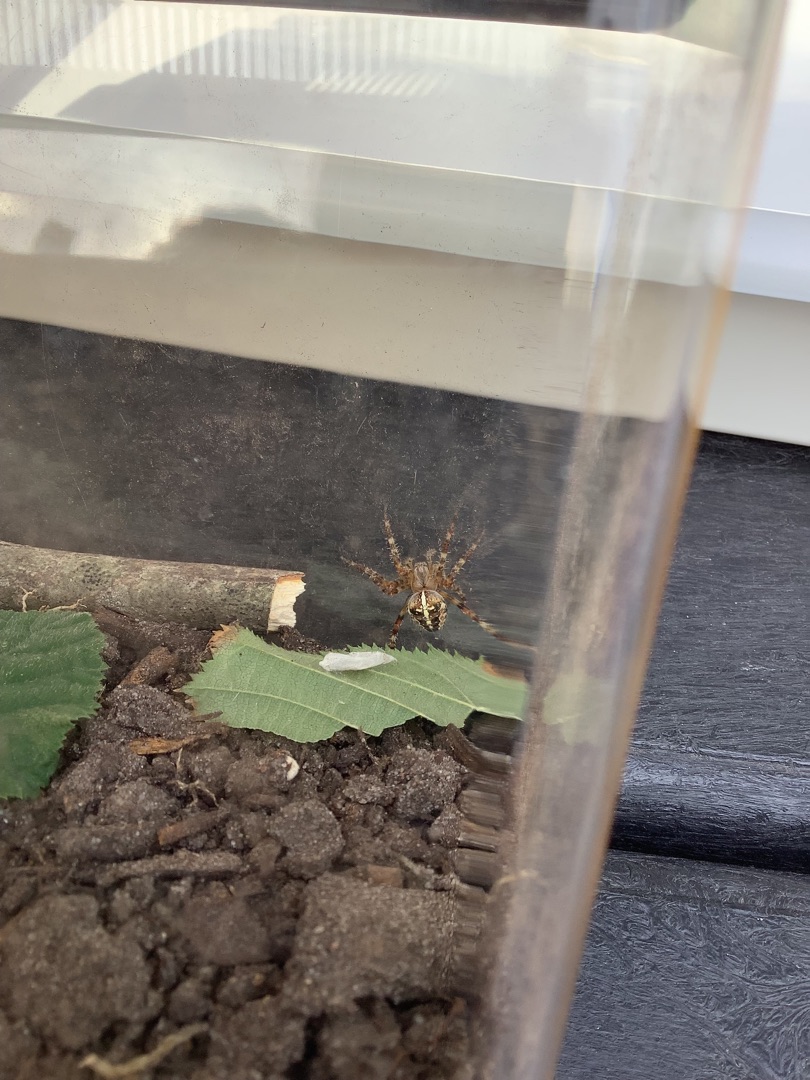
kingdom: Animalia
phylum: Arthropoda
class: Arachnida
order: Araneae
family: Araneidae
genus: Araneus
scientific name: Araneus diadematus
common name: Korsedderkop
